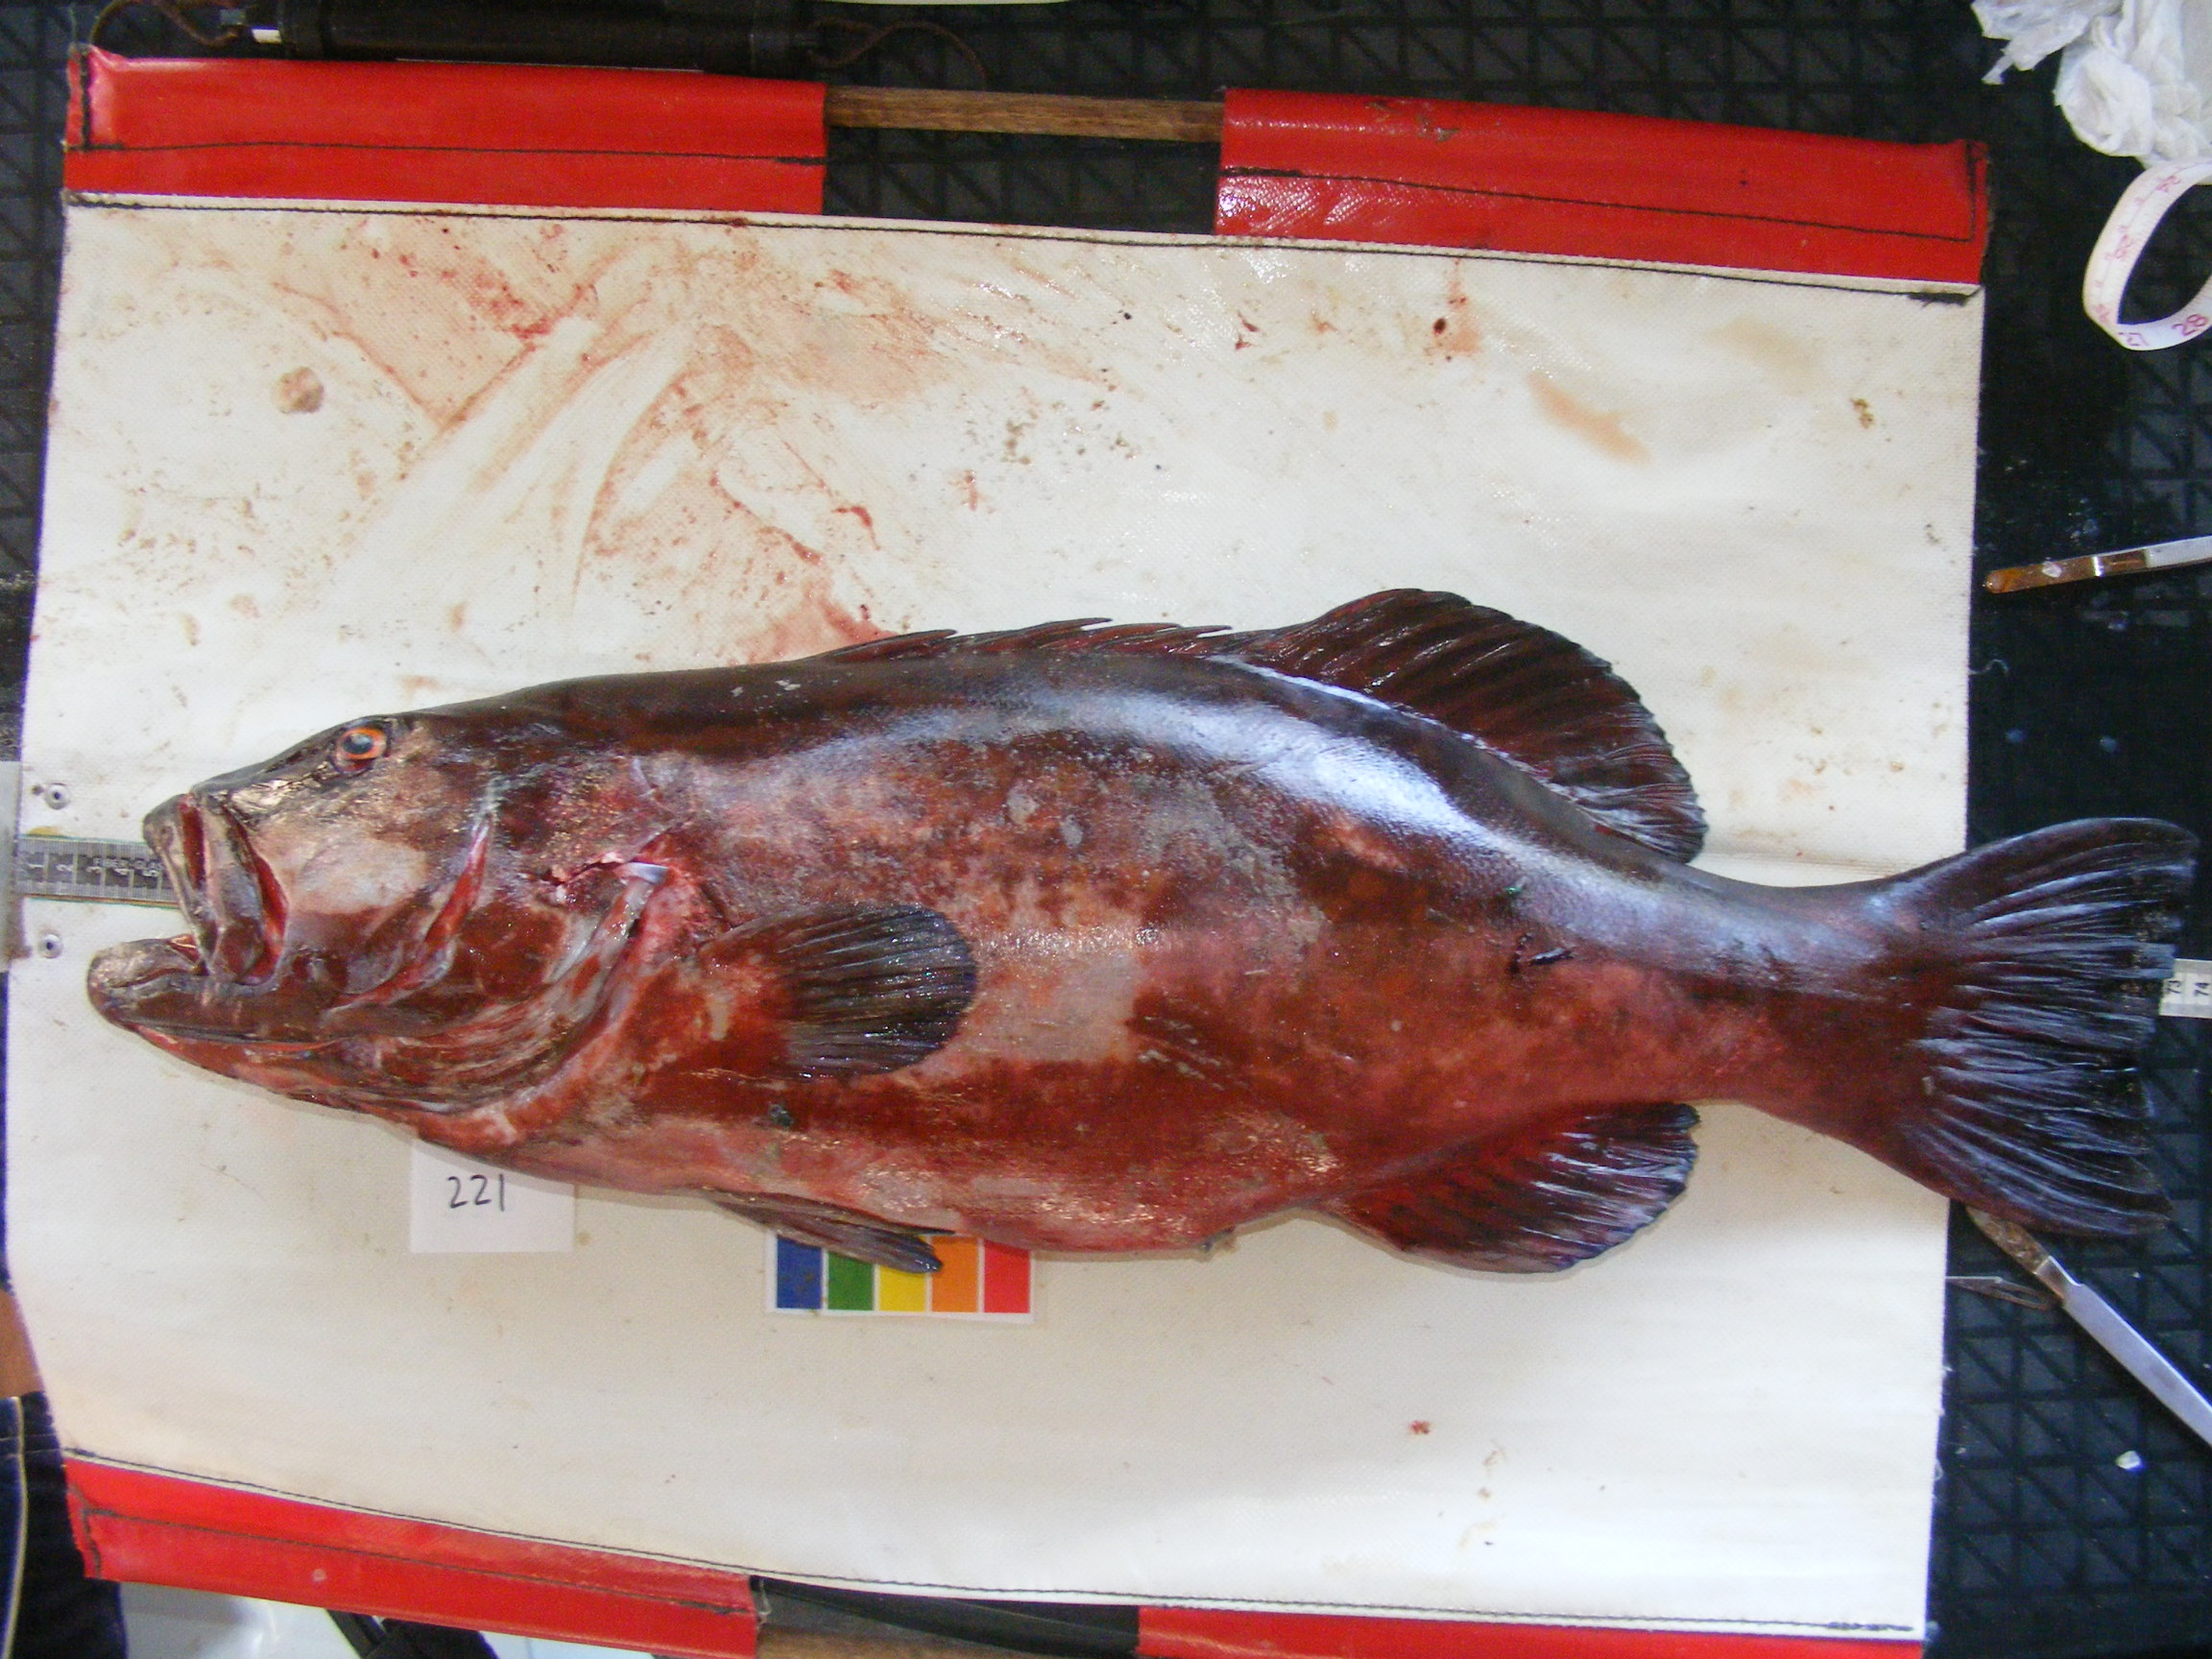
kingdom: Animalia
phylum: Chordata
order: Perciformes
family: Serranidae
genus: Plectropomus
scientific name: Plectropomus punctatus
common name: Marbled coralgrouper
